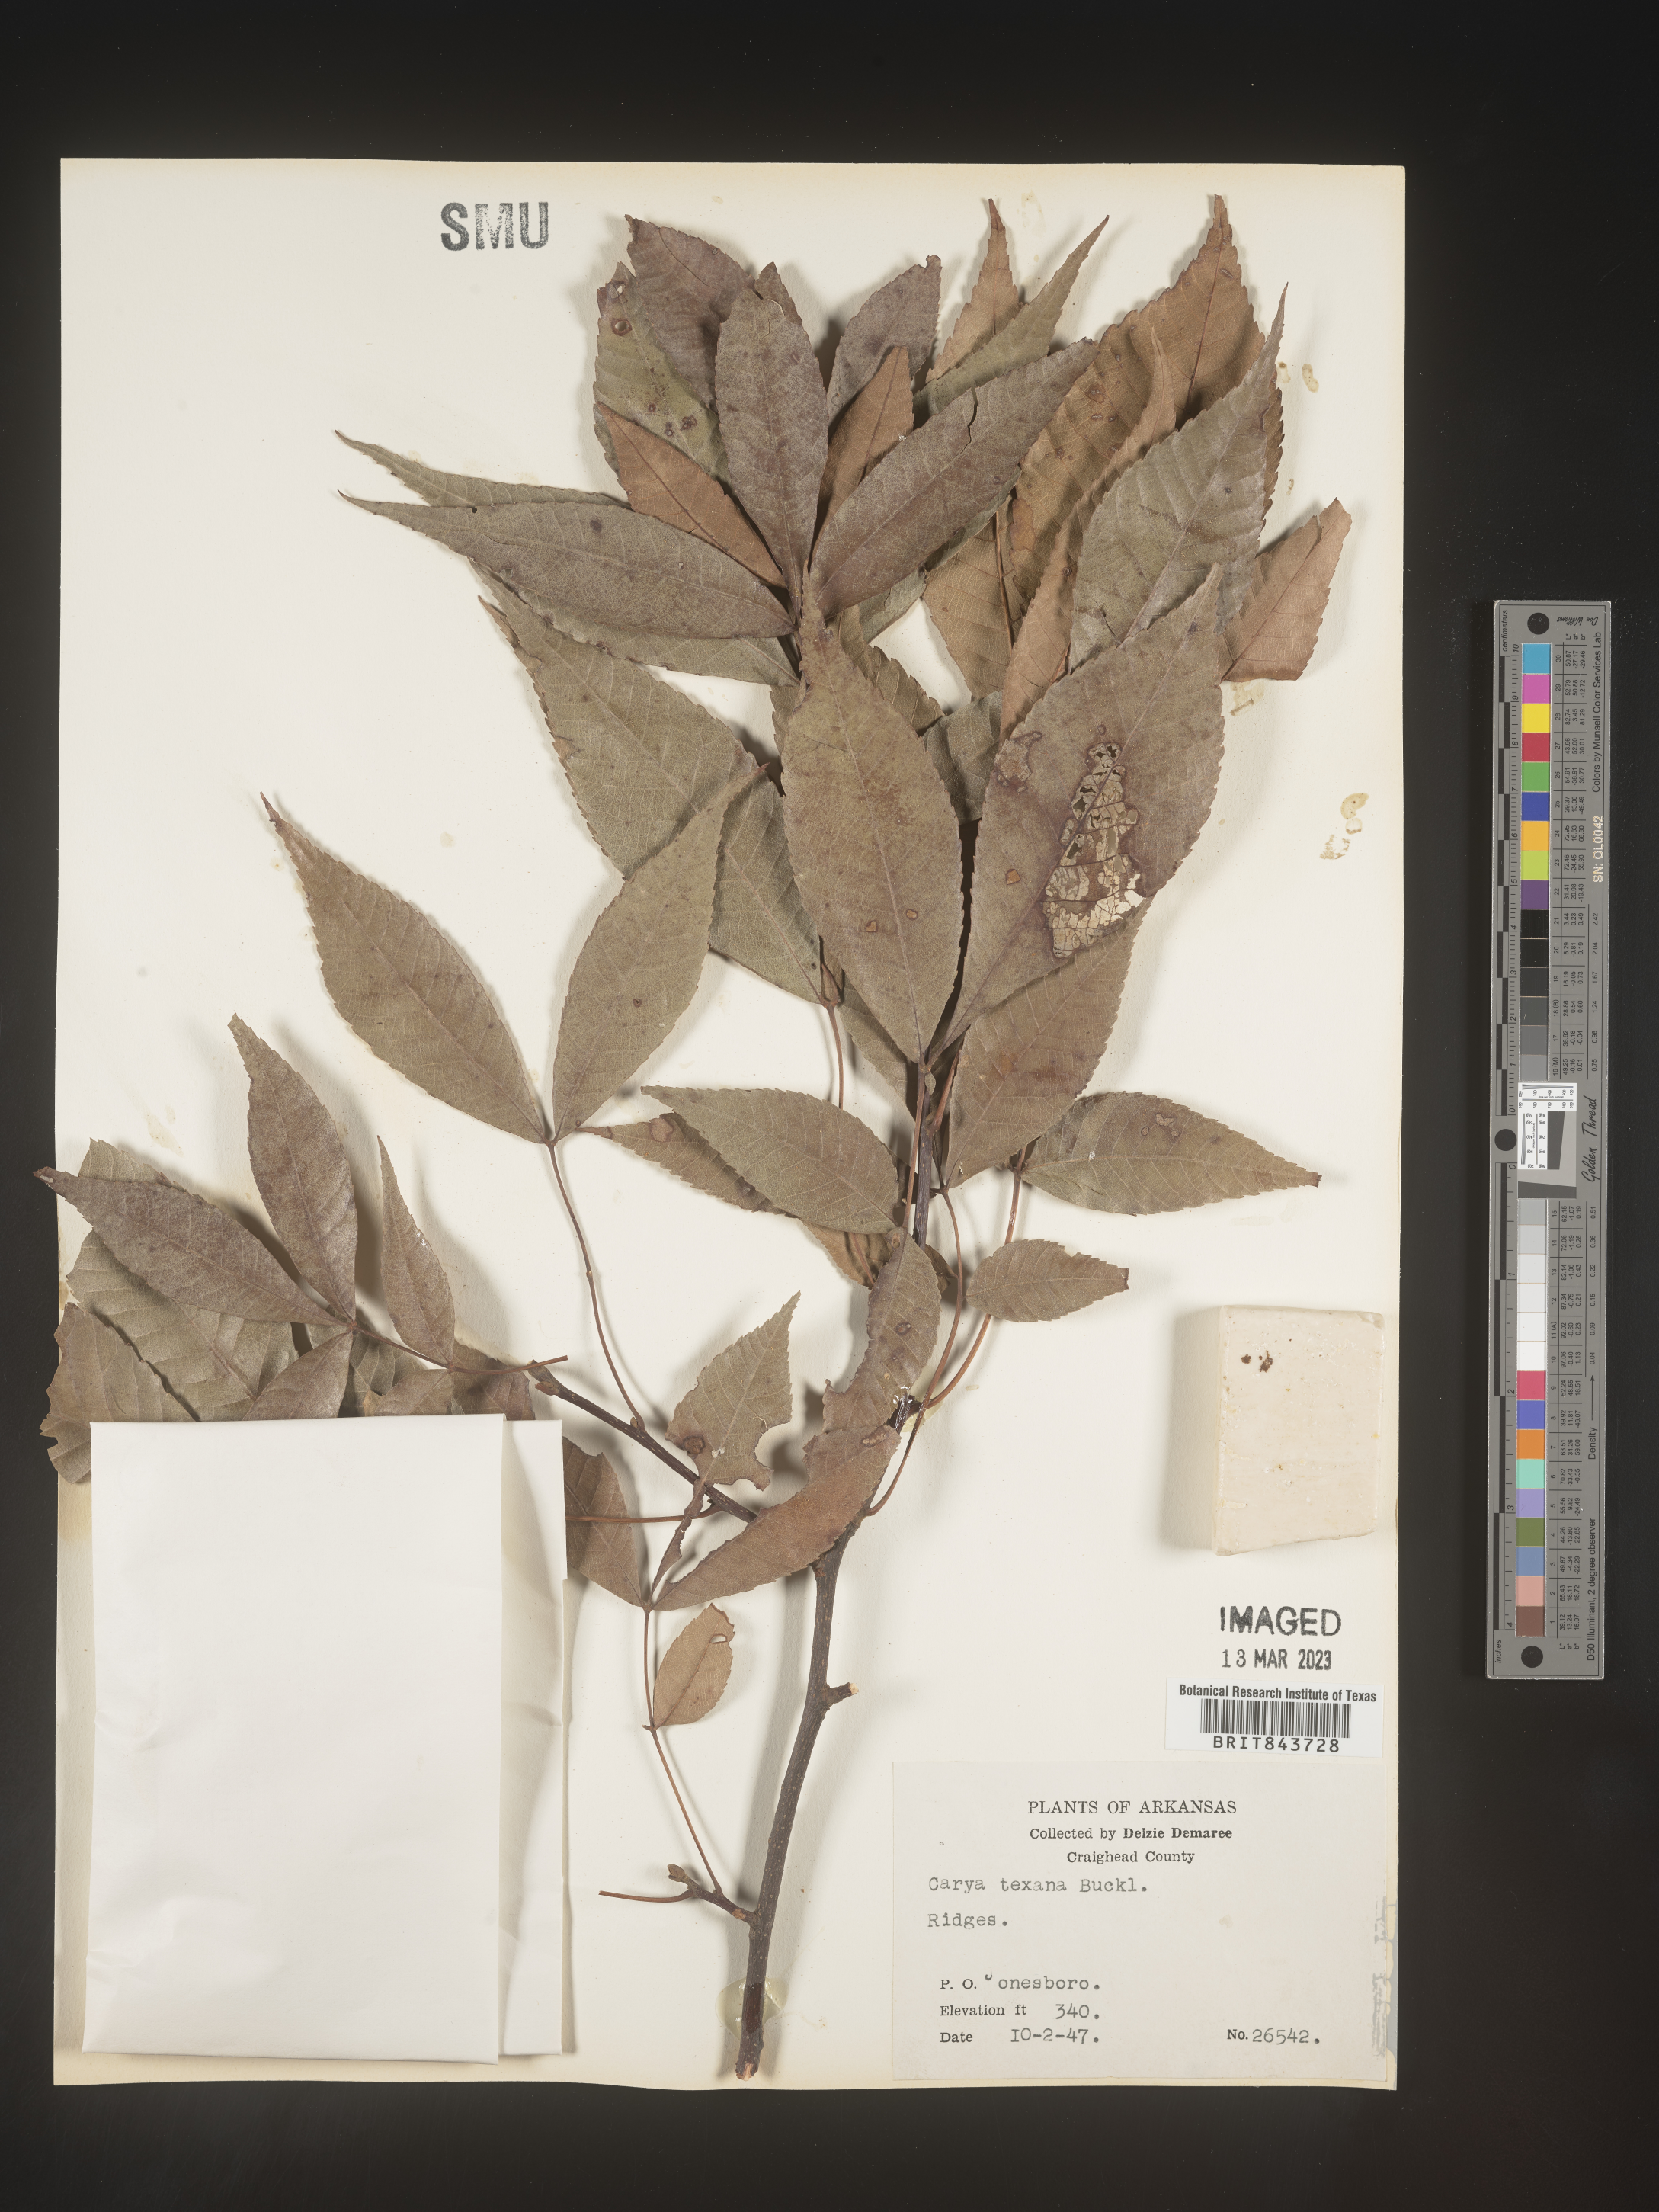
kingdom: Plantae
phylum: Tracheophyta
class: Magnoliopsida
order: Fagales
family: Juglandaceae
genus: Carya
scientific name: Carya texana
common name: Black hickory
